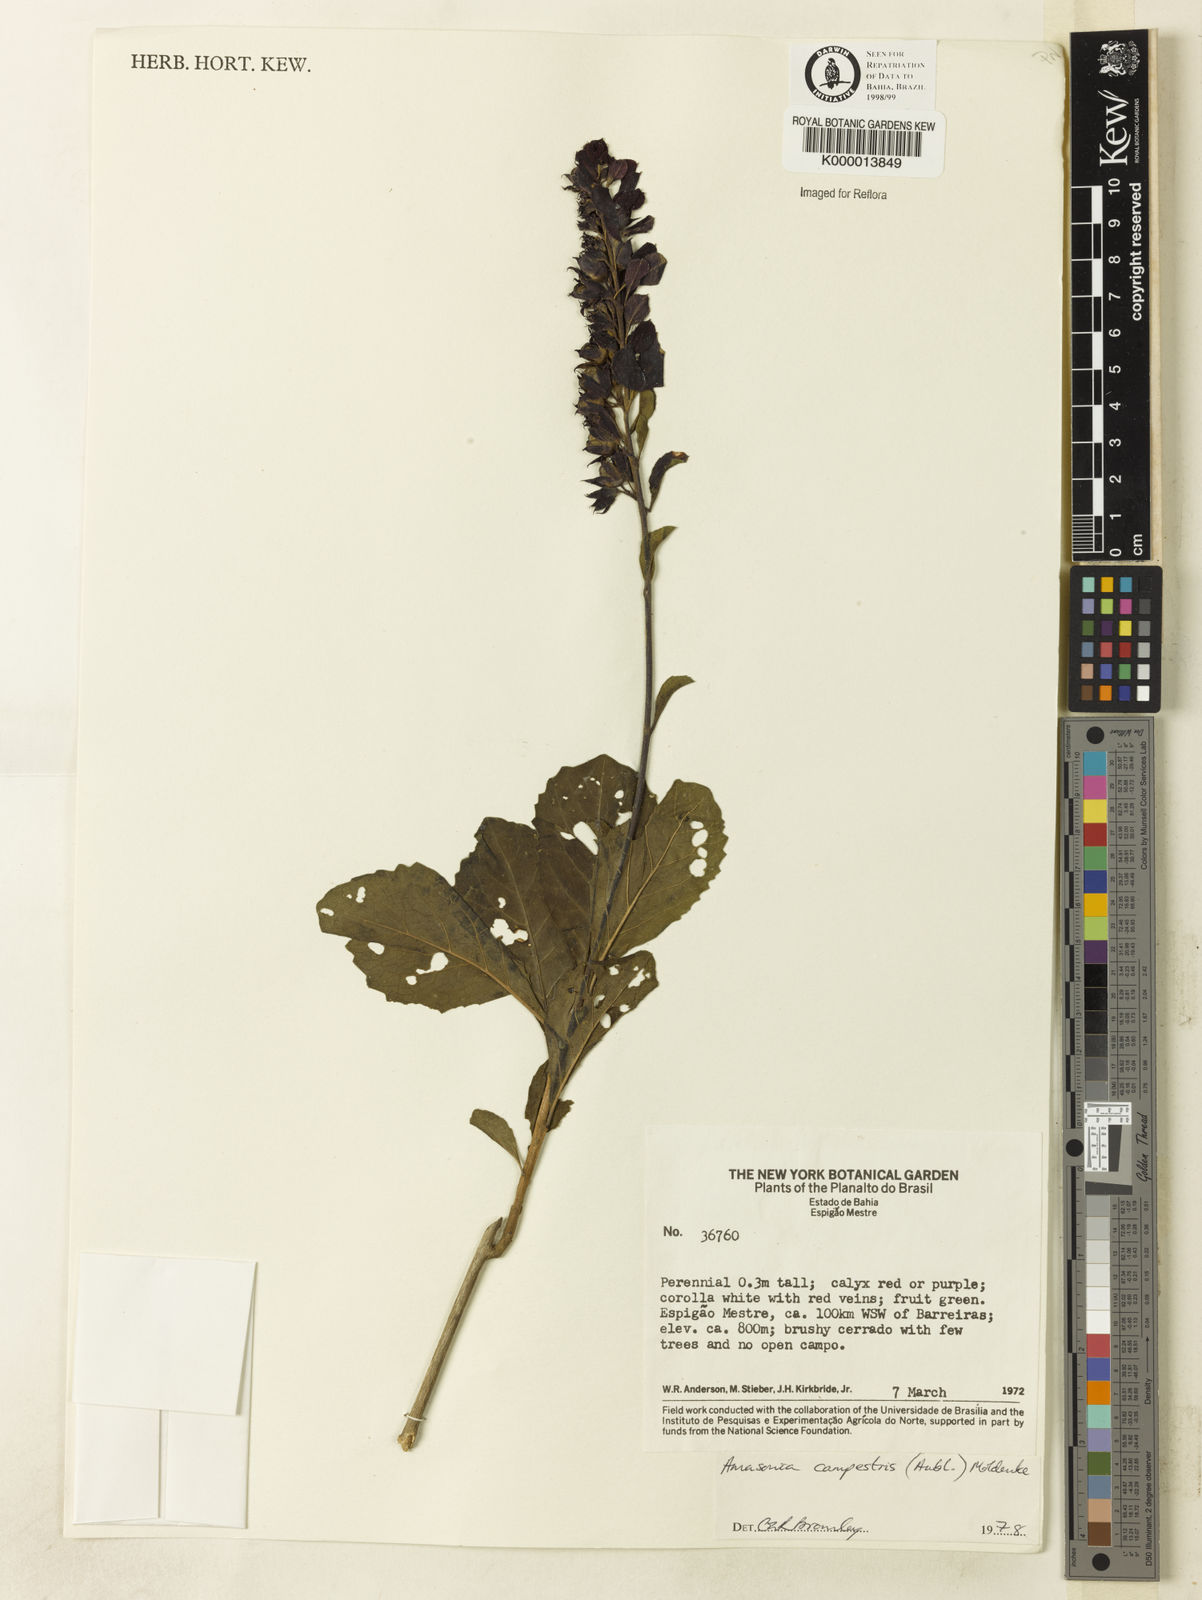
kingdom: Plantae
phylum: Tracheophyta
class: Magnoliopsida
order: Lamiales
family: Lamiaceae
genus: Amasonia
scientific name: Amasonia campestris
